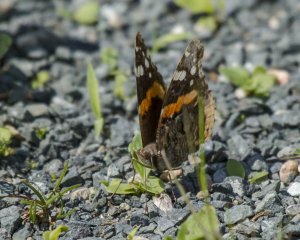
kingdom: Animalia
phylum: Arthropoda
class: Insecta
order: Lepidoptera
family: Nymphalidae
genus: Vanessa
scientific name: Vanessa atalanta
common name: Red Admiral
